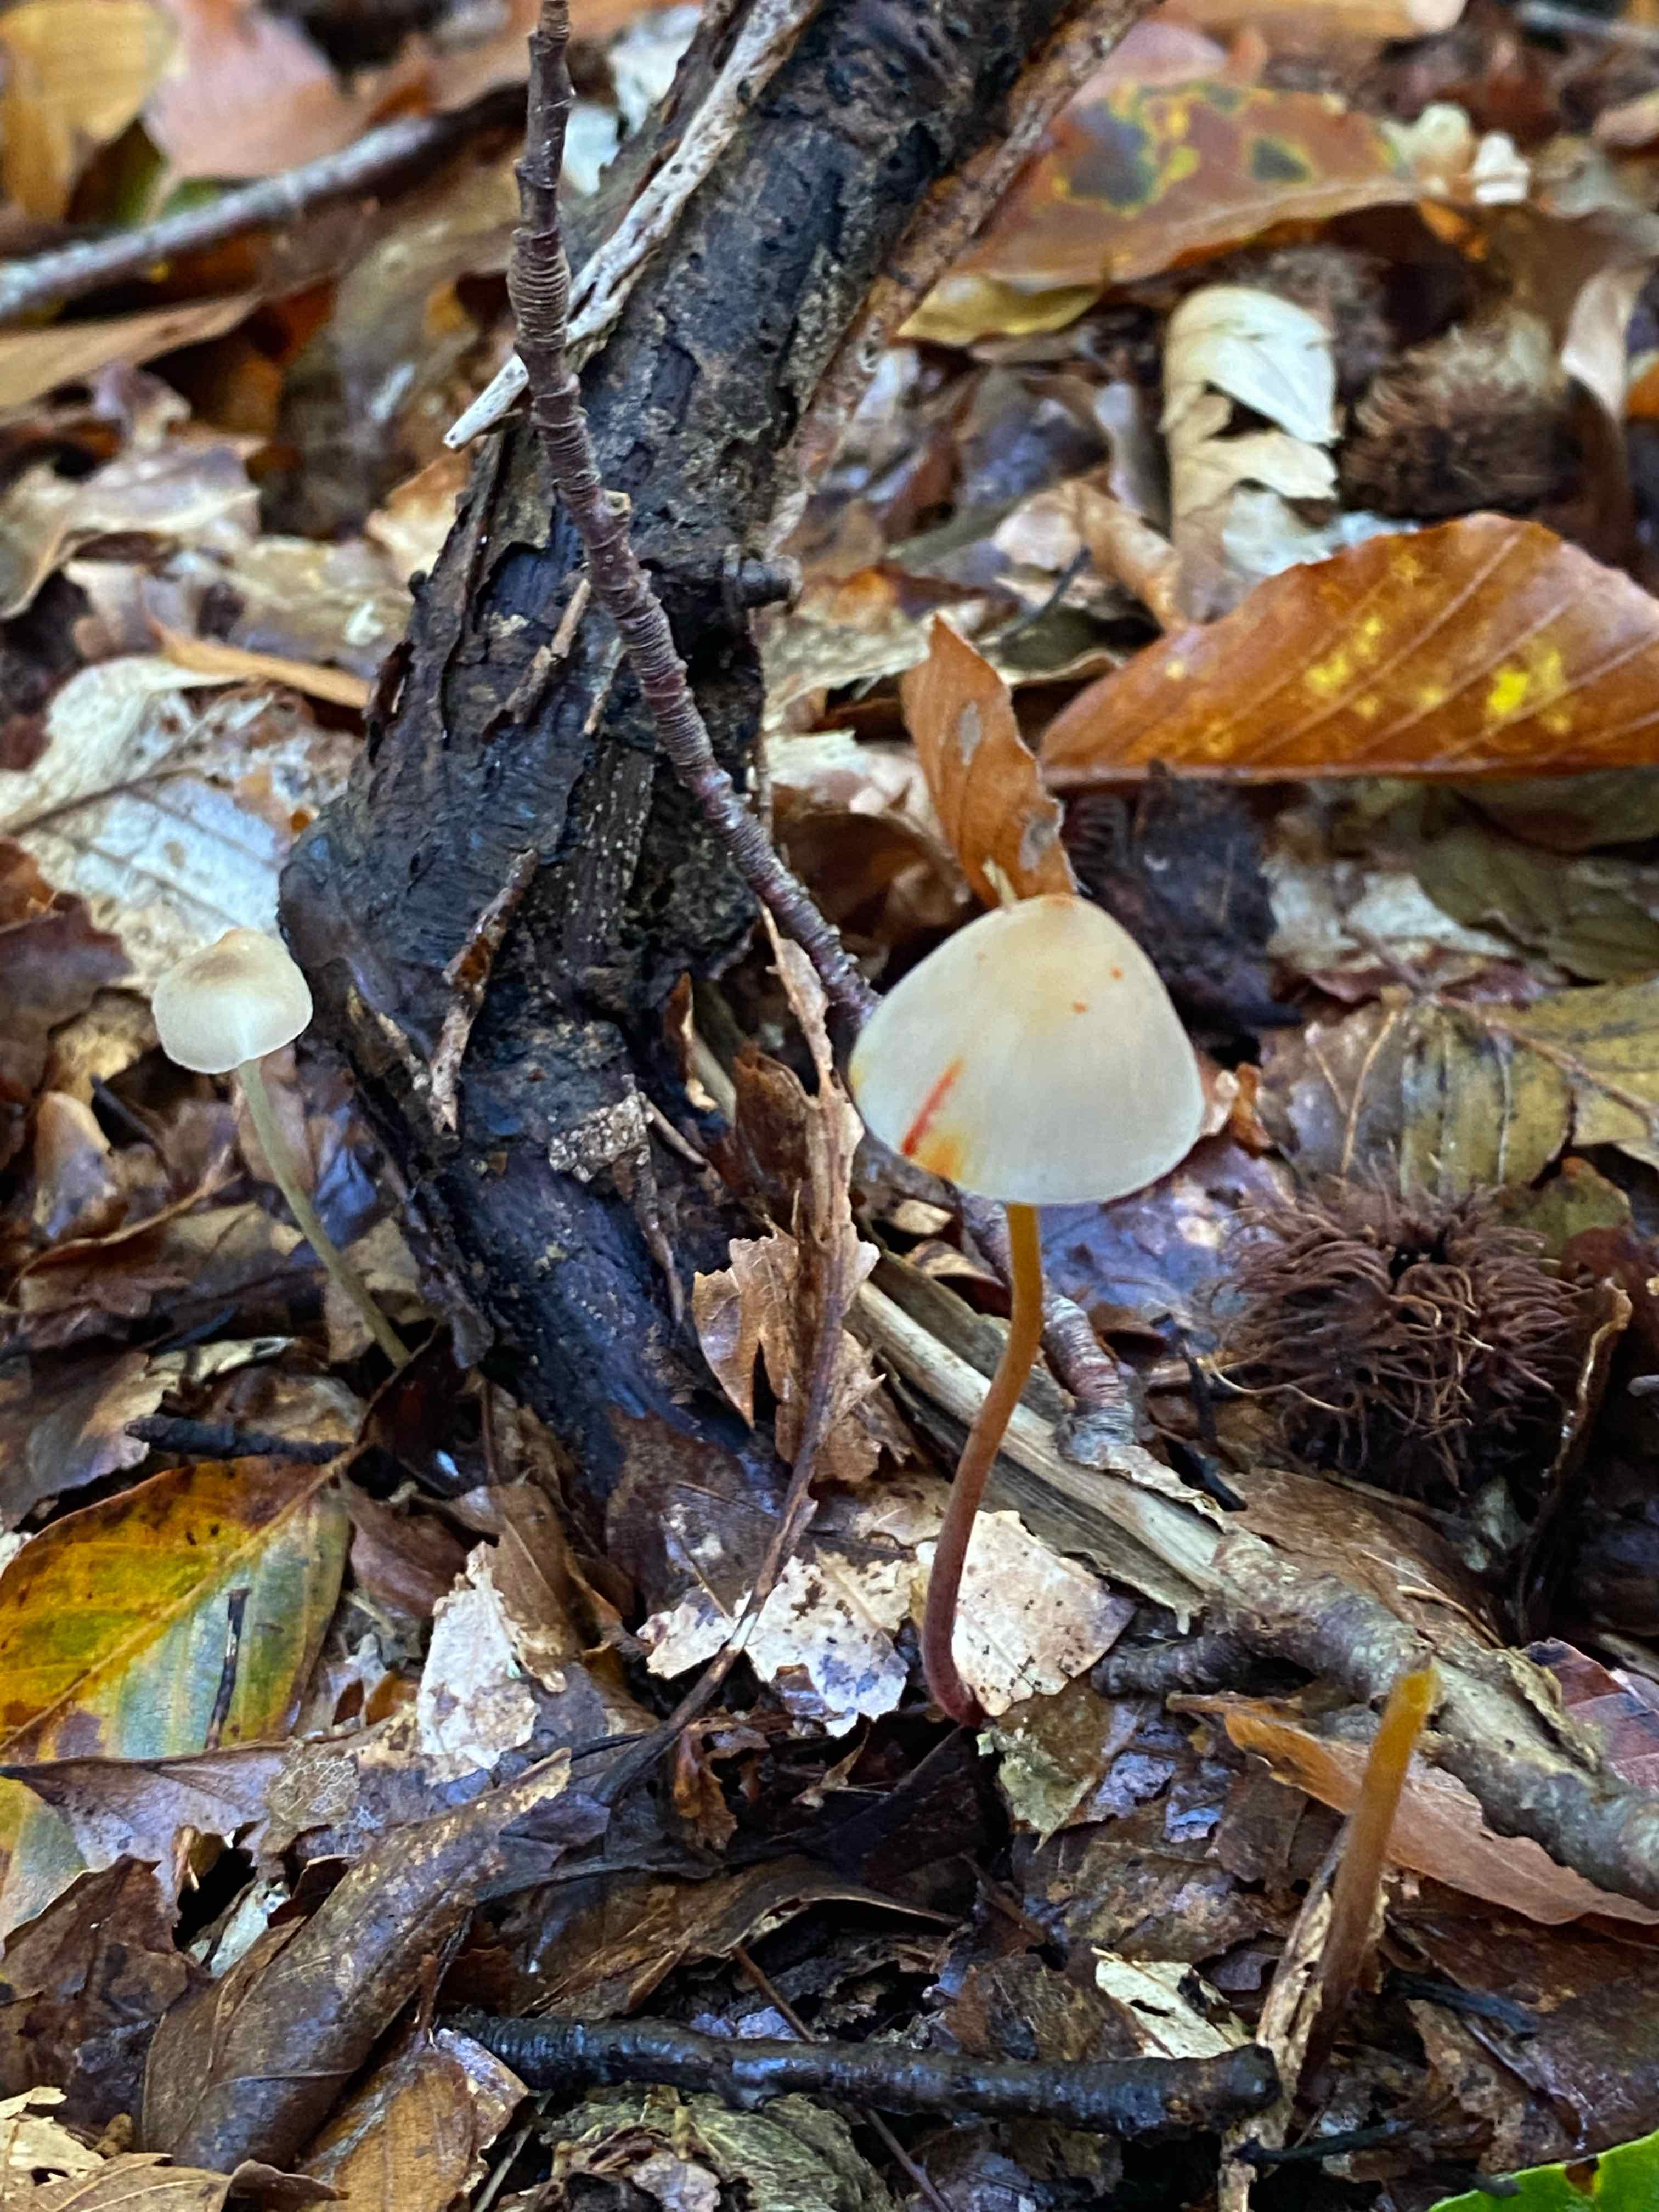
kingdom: Fungi
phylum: Basidiomycota
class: Agaricomycetes
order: Agaricales
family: Mycenaceae
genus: Mycena
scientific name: Mycena crocata
